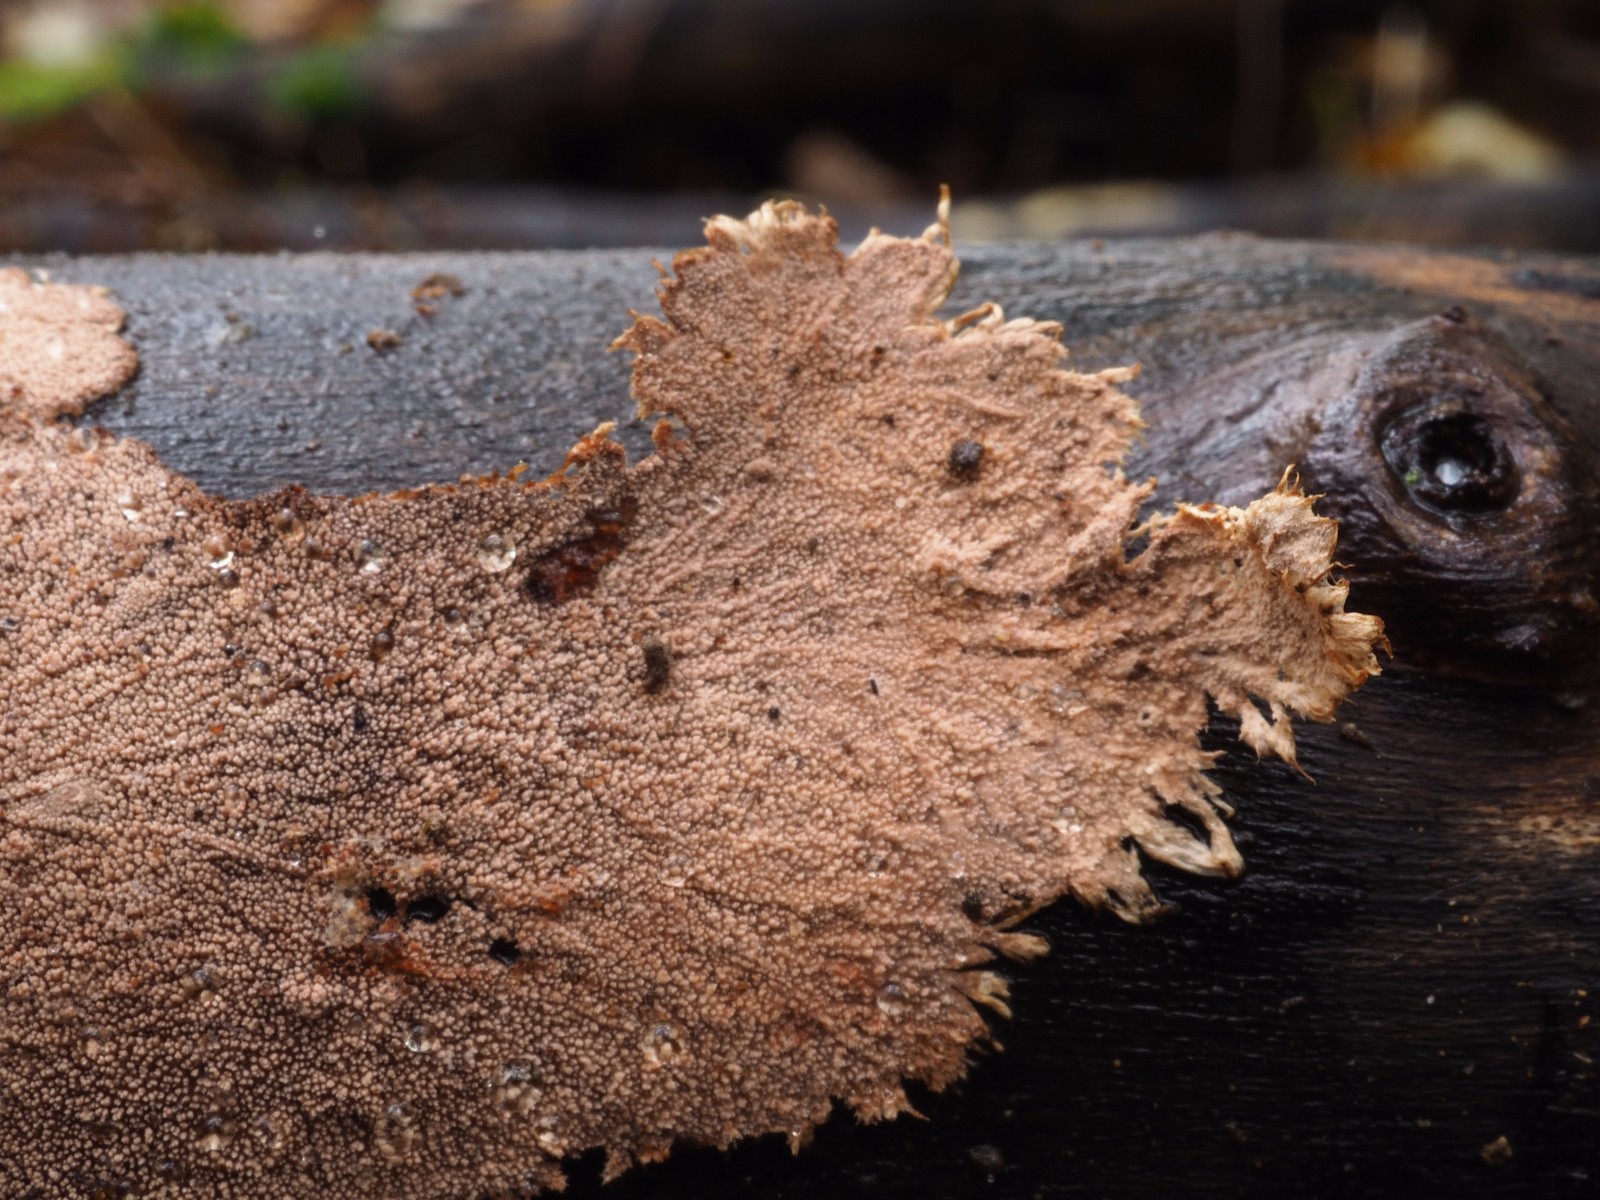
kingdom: Fungi
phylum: Basidiomycota
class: Agaricomycetes
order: Polyporales
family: Steccherinaceae
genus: Steccherinum
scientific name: Steccherinum fimbriatum
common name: trådet skønpig
